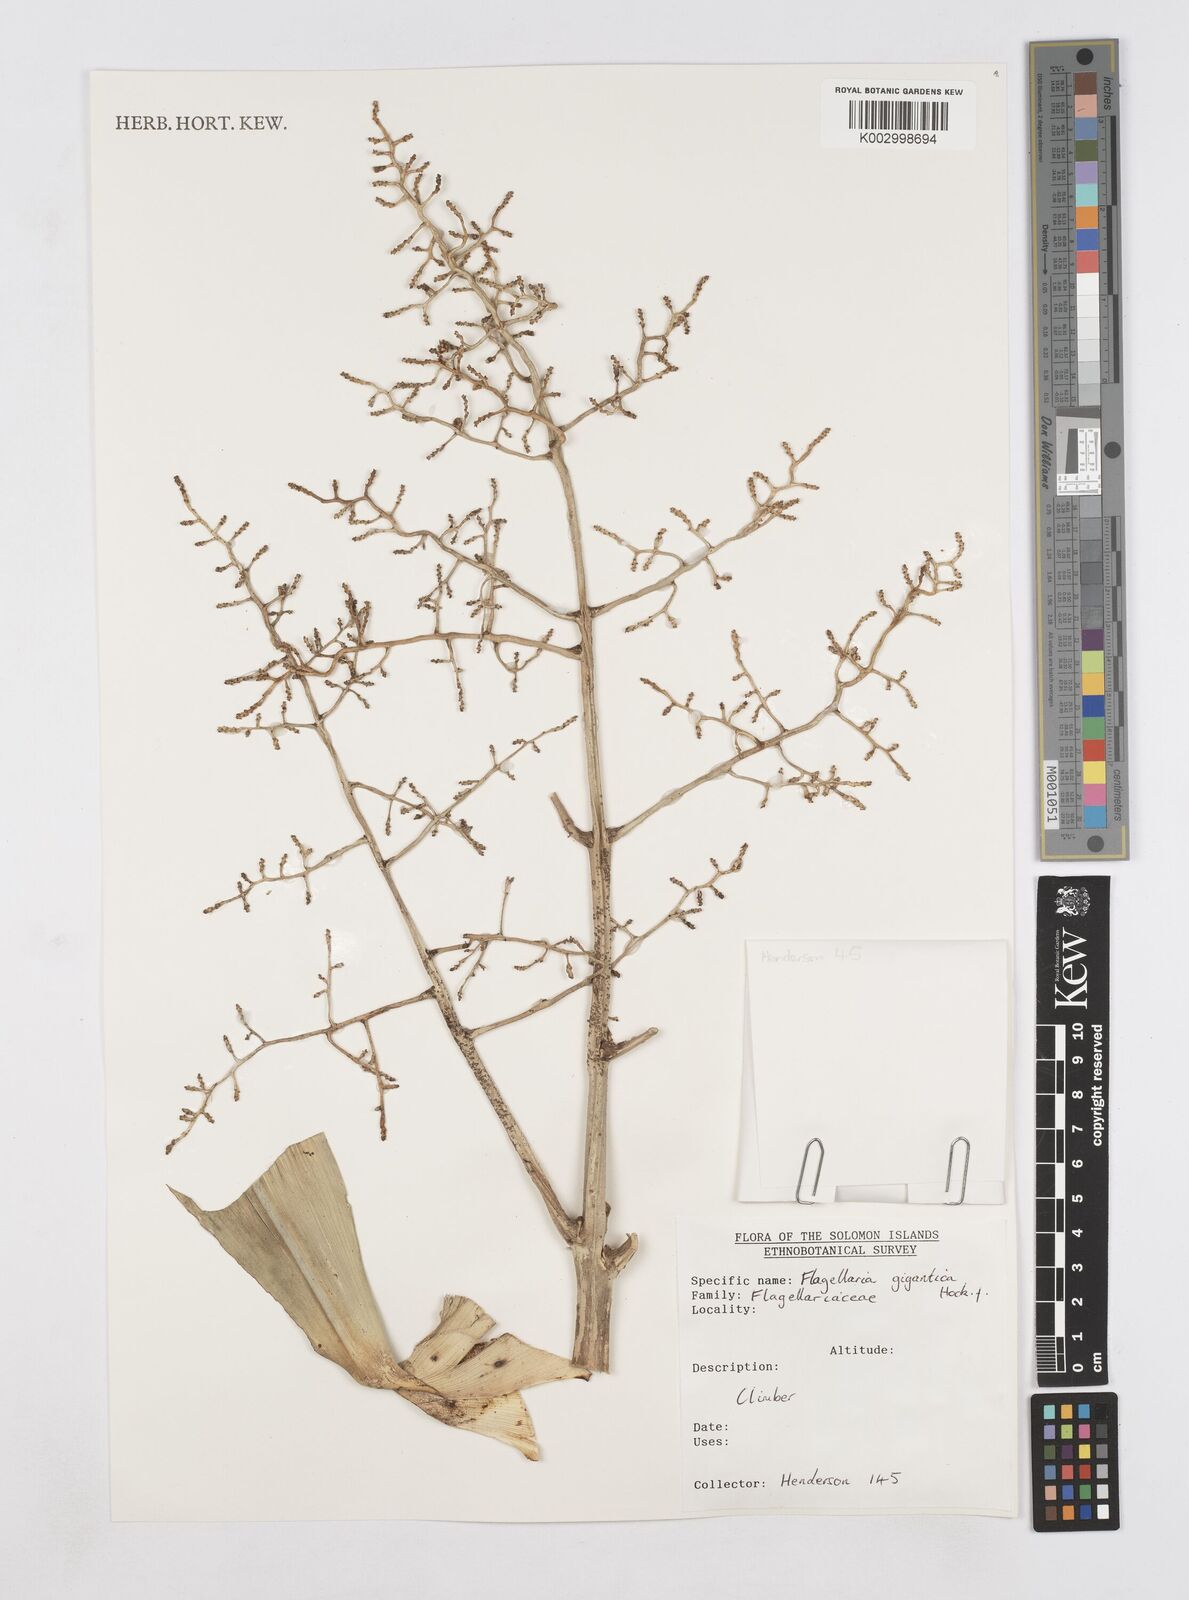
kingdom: Plantae
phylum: Tracheophyta
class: Liliopsida
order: Poales
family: Flagellariaceae
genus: Flagellaria
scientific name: Flagellaria indica
